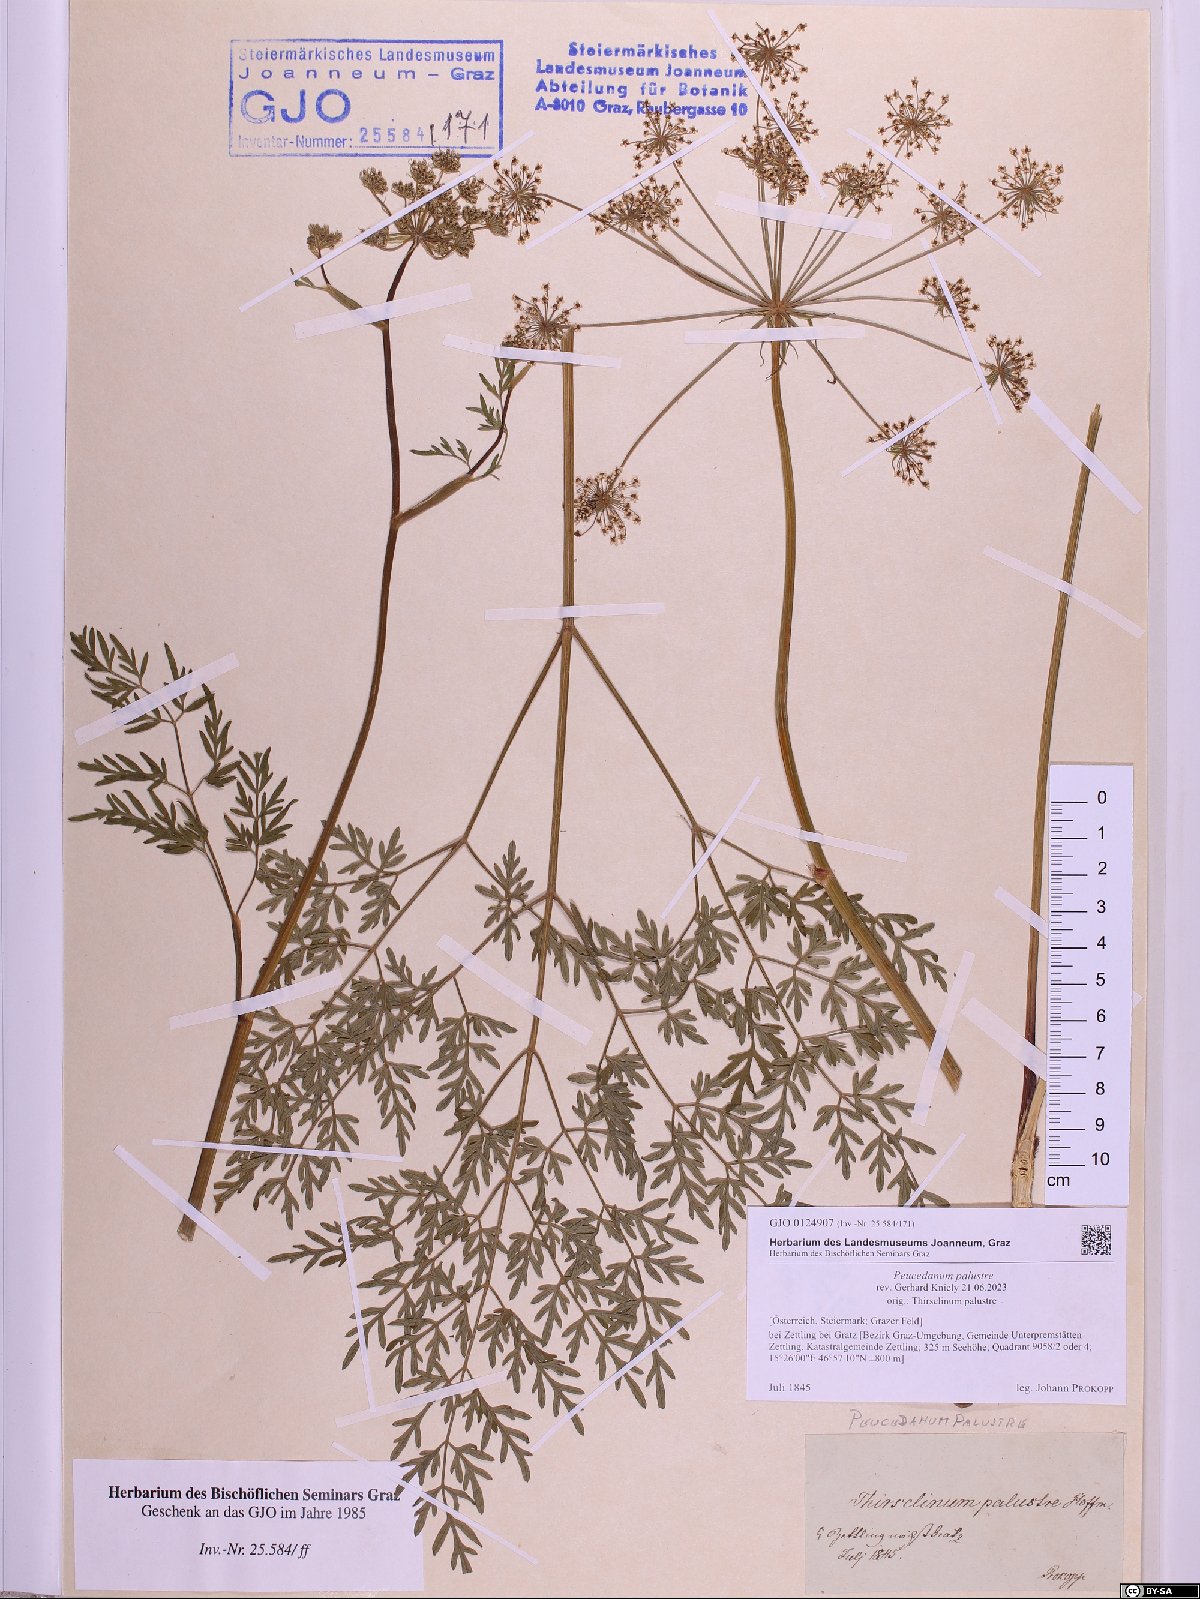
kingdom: Plantae
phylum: Tracheophyta
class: Magnoliopsida
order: Apiales
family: Apiaceae
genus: Thysselinum
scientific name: Thysselinum palustre
